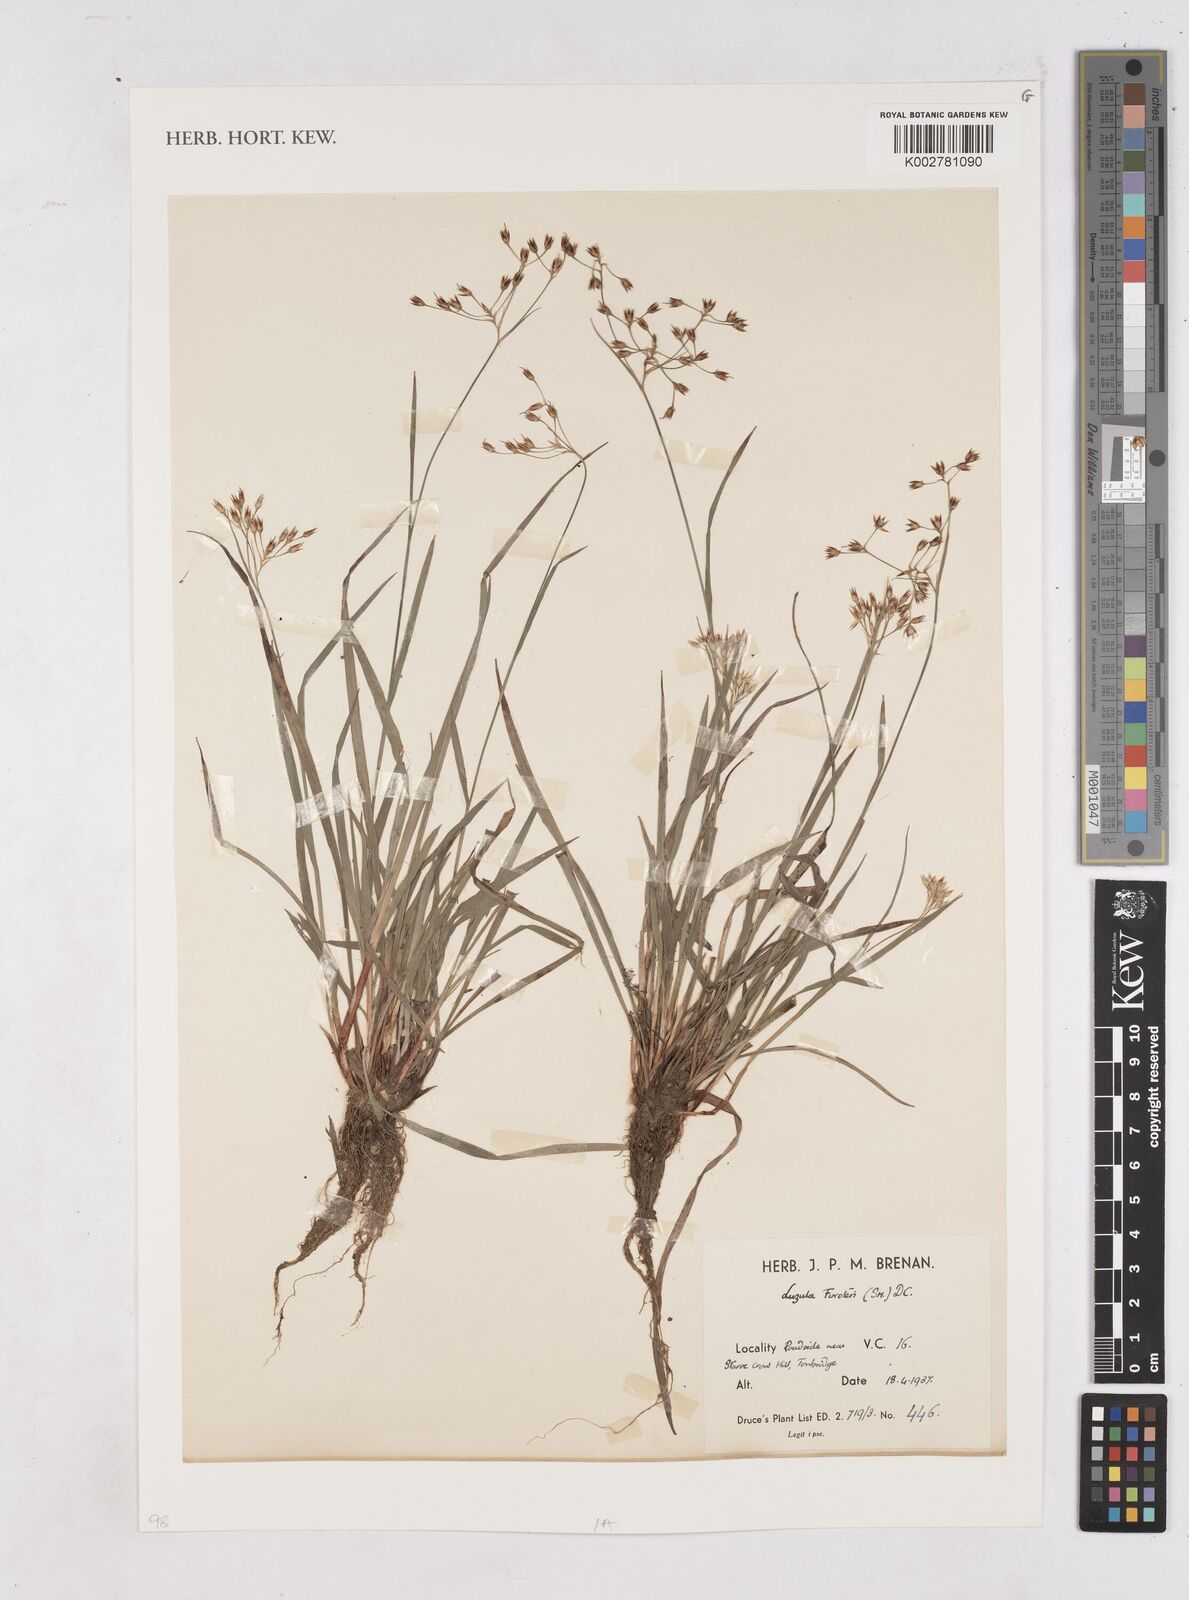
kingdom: Plantae
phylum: Tracheophyta
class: Liliopsida
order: Poales
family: Juncaceae
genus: Luzula
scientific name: Luzula forsteri
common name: Southern wood-rush
